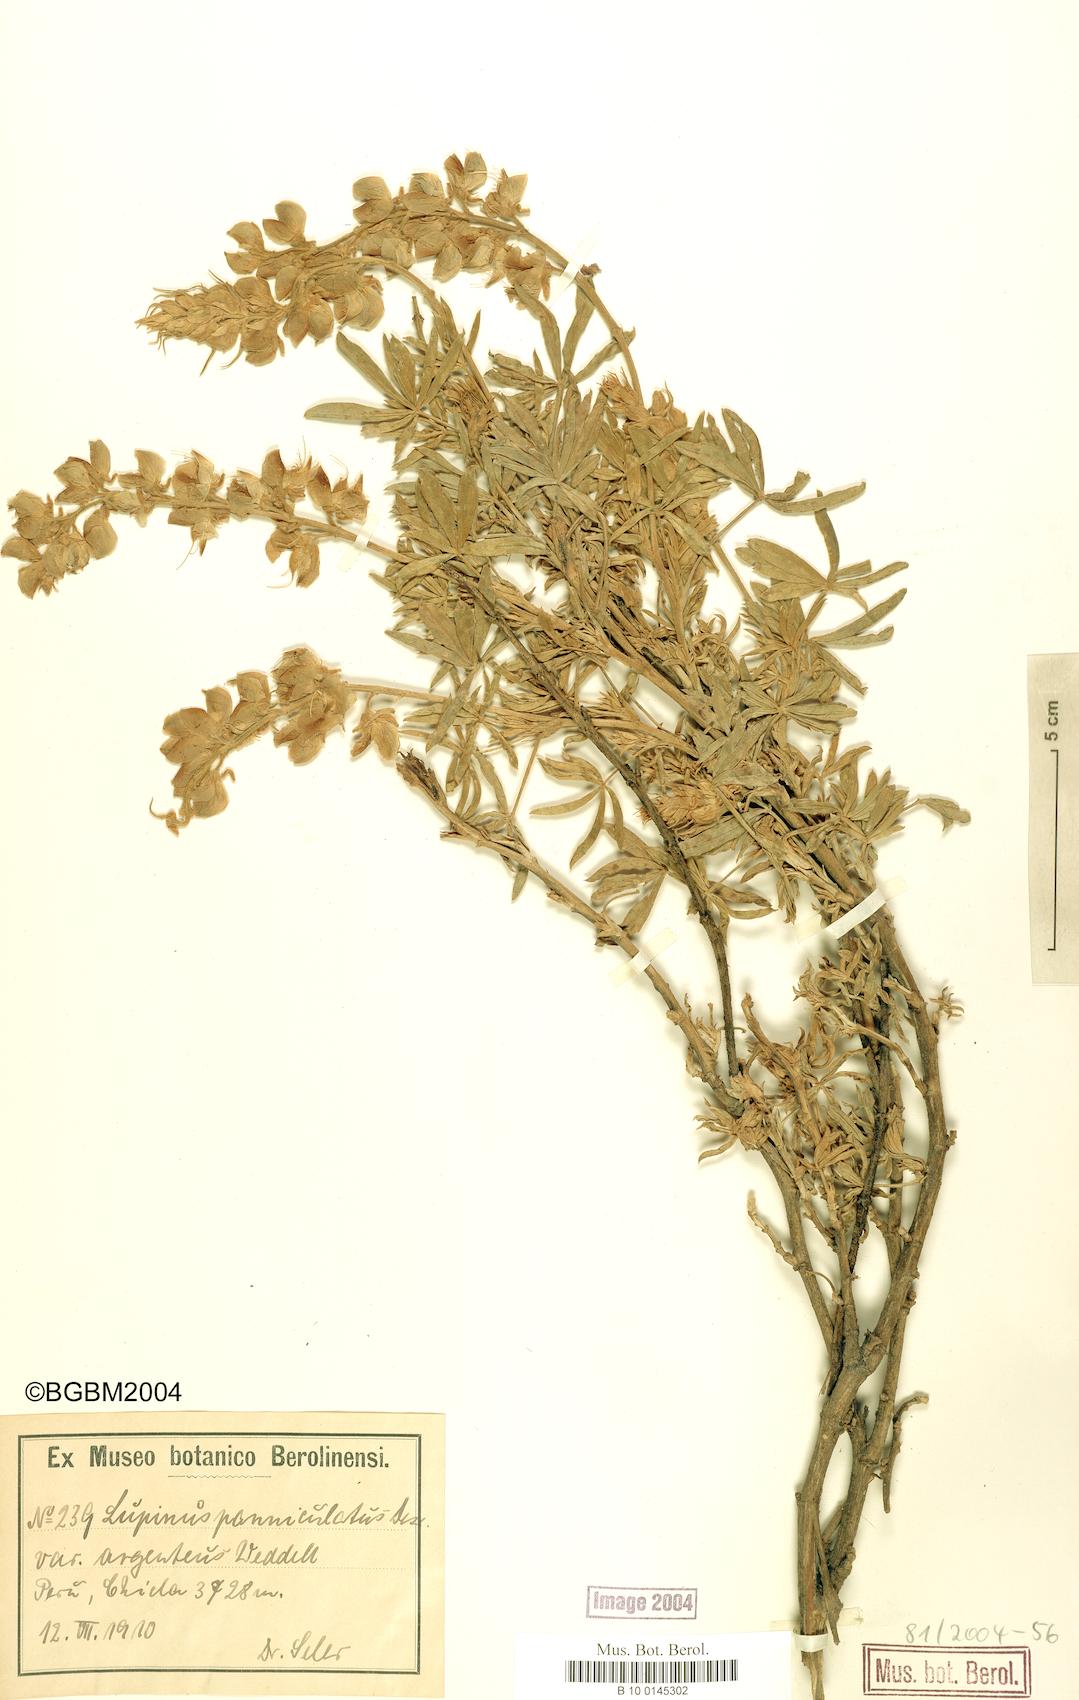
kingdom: Plantae
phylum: Tracheophyta
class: Magnoliopsida
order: Fabales
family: Fabaceae
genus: Lupinus
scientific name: Lupinus paniculatus
